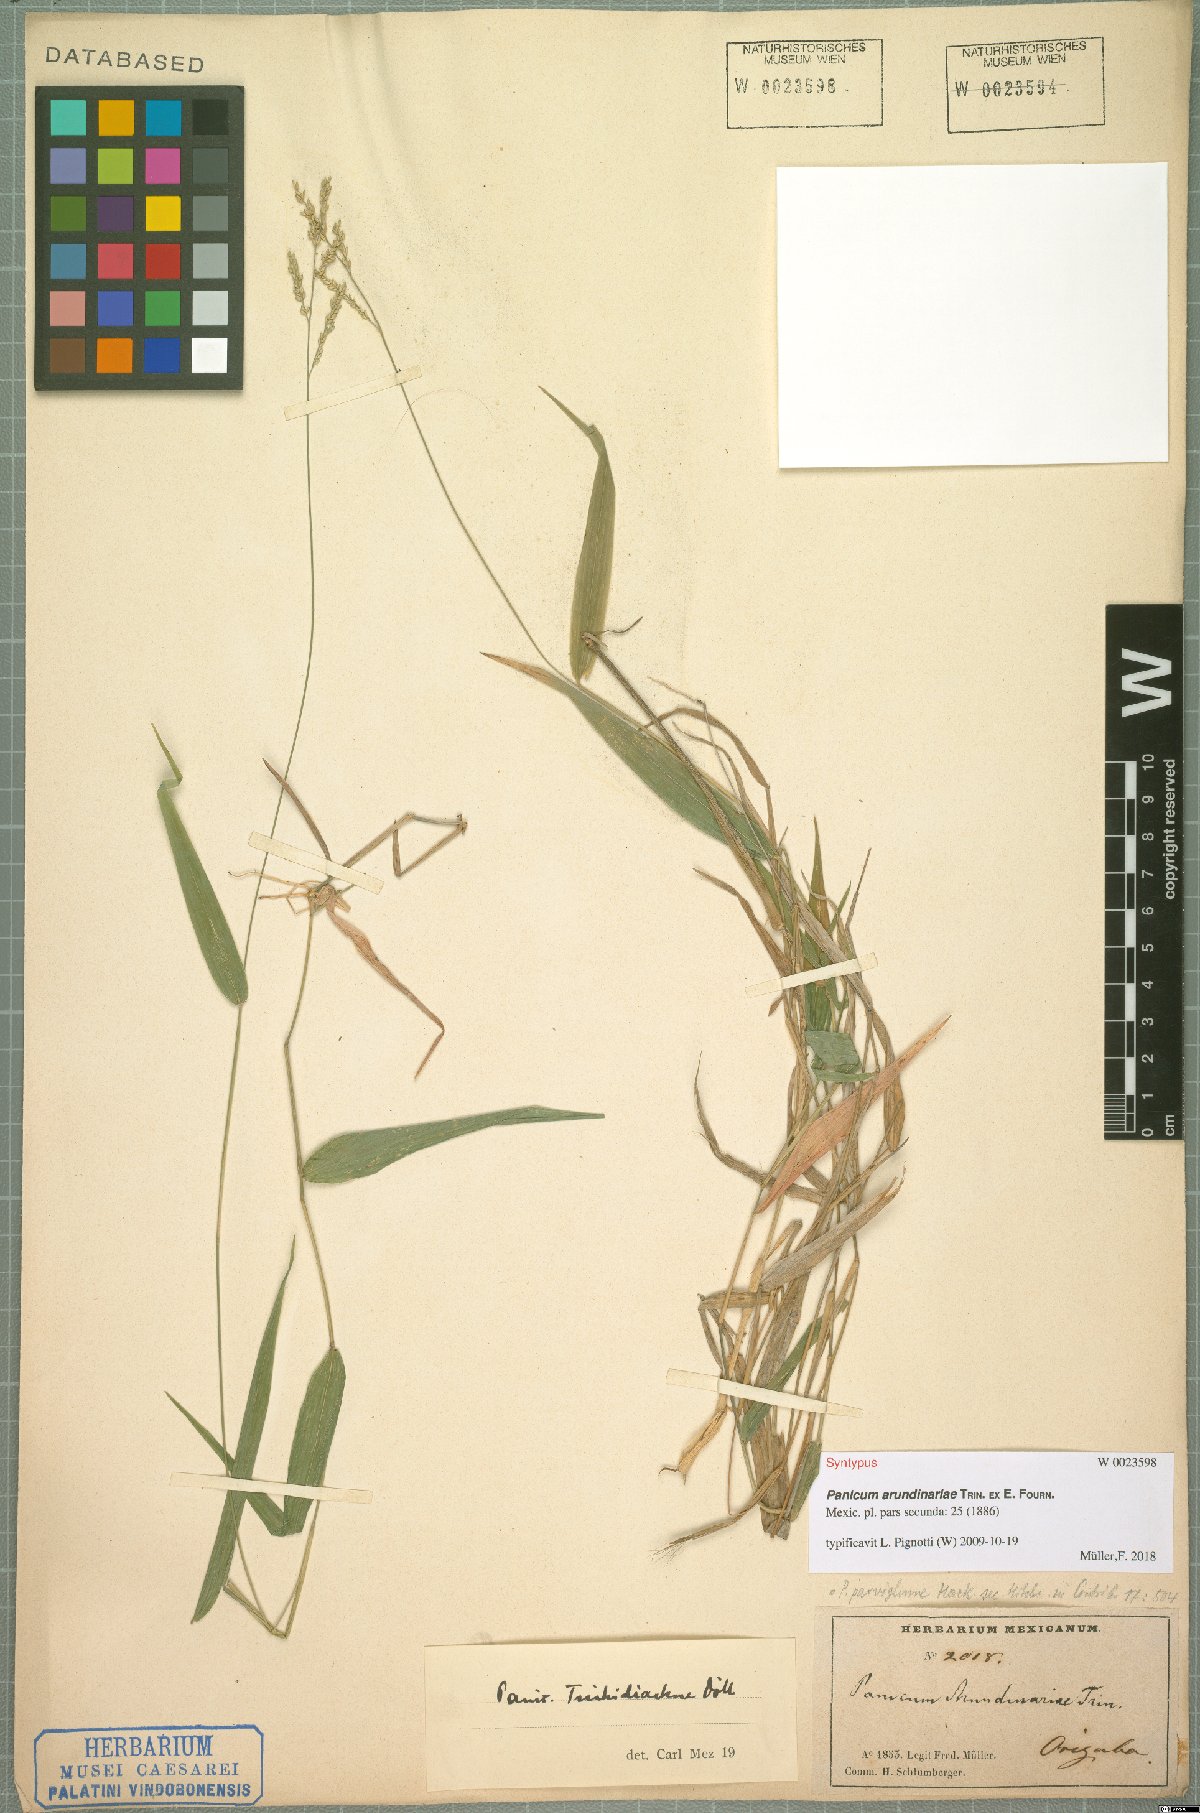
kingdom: Plantae
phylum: Tracheophyta
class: Liliopsida
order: Poales
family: Poaceae
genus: Morronea
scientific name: Morronea arundinariae
